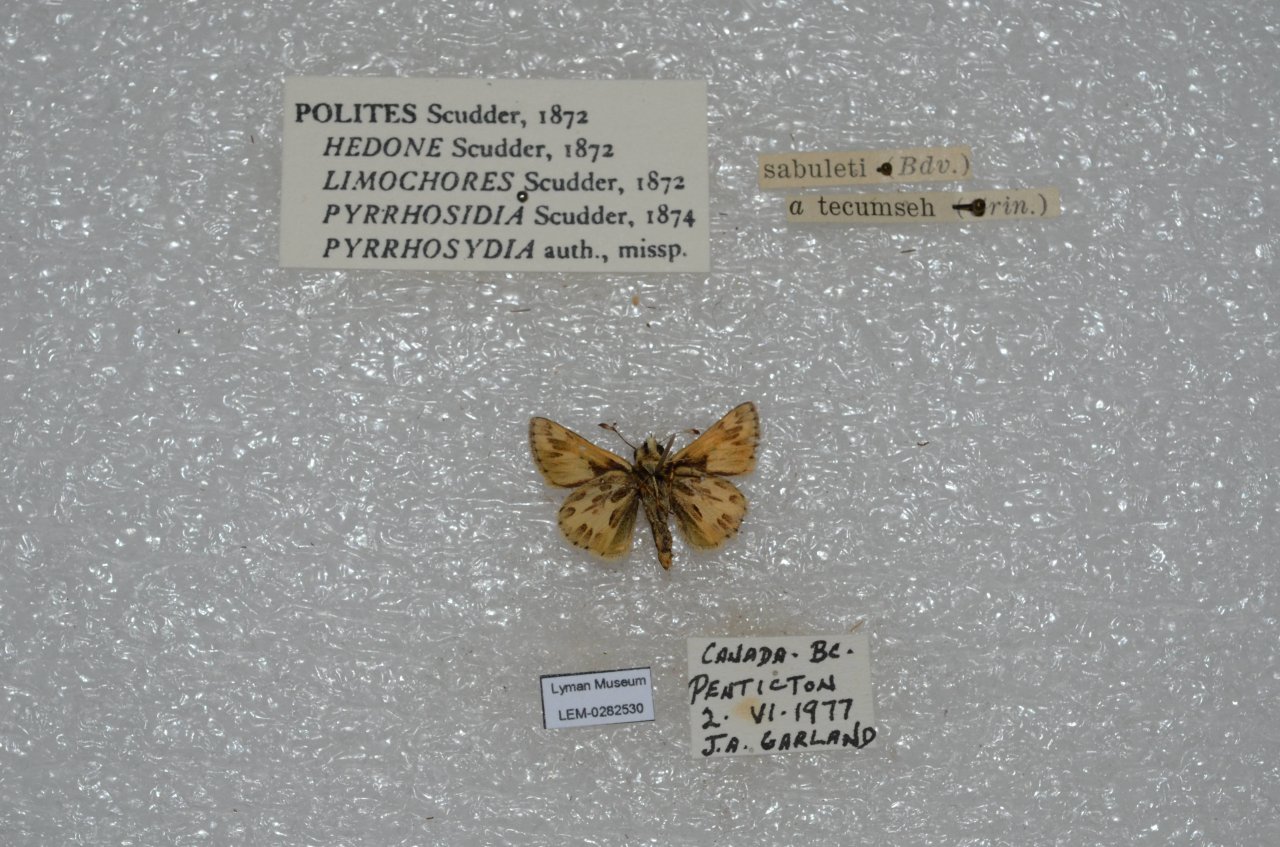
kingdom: Animalia
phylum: Arthropoda
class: Insecta
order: Lepidoptera
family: Hesperiidae
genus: Polites
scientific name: Polites sabuleti
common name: Sandhill Skipper
